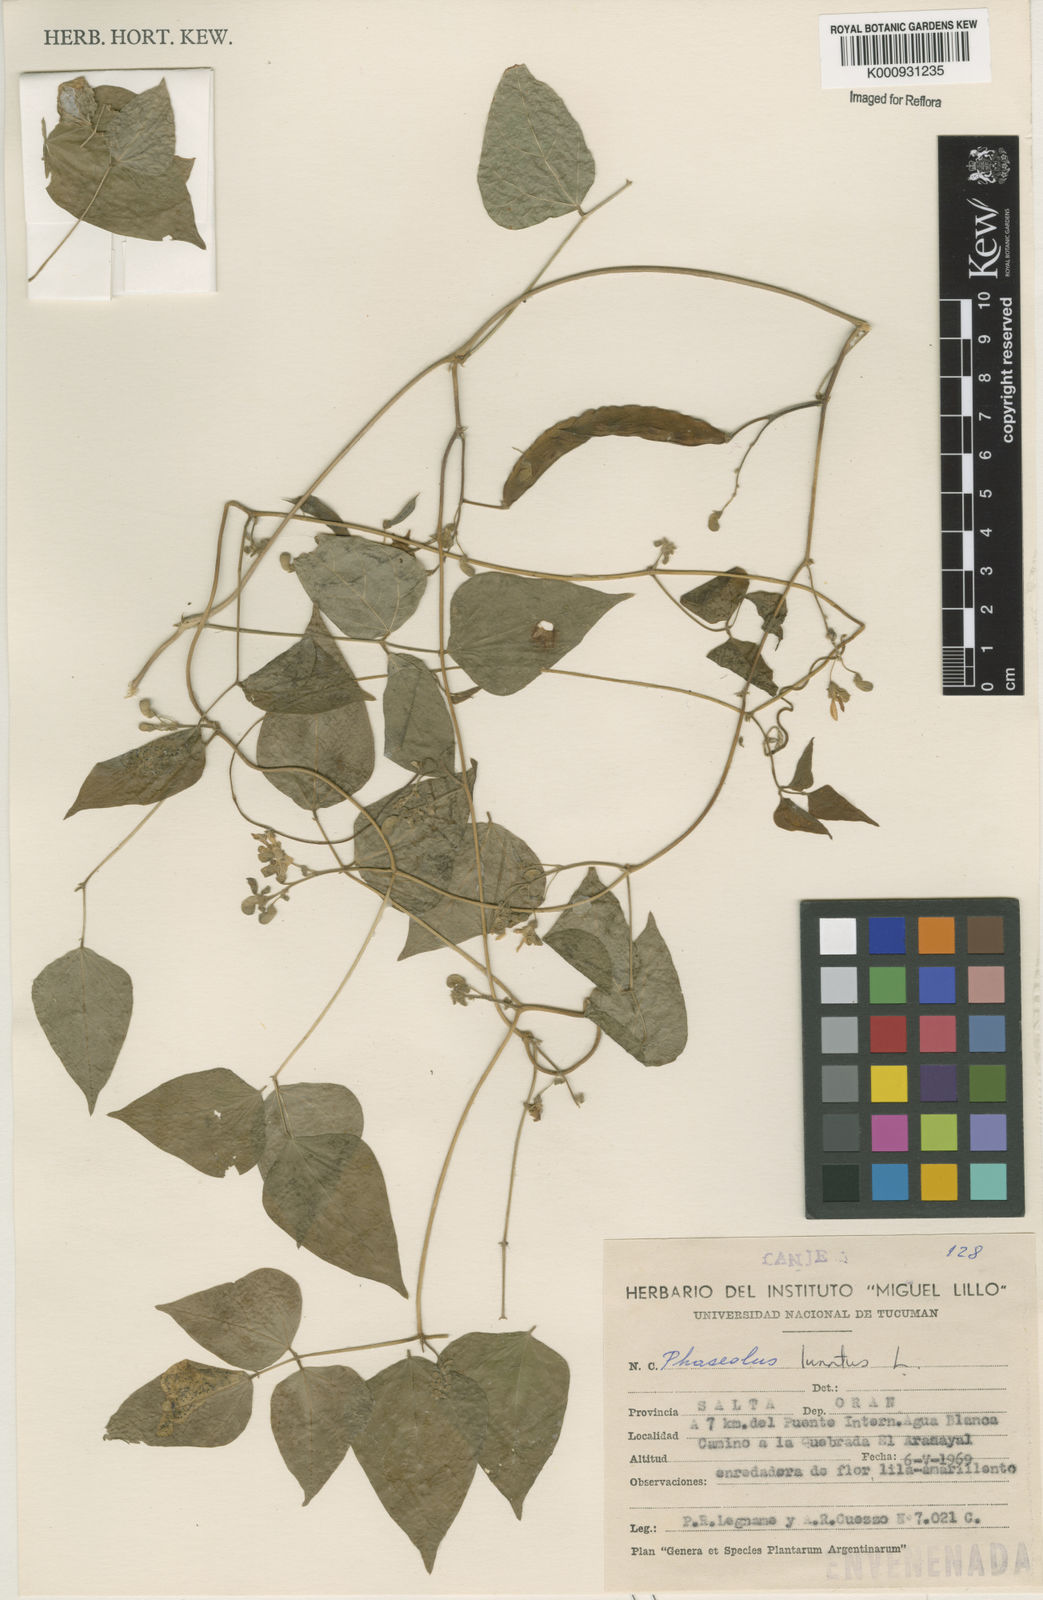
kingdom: Plantae
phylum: Tracheophyta
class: Magnoliopsida
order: Fabales
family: Fabaceae
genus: Phaseolus
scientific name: Phaseolus lunatus
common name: Sieva bean
